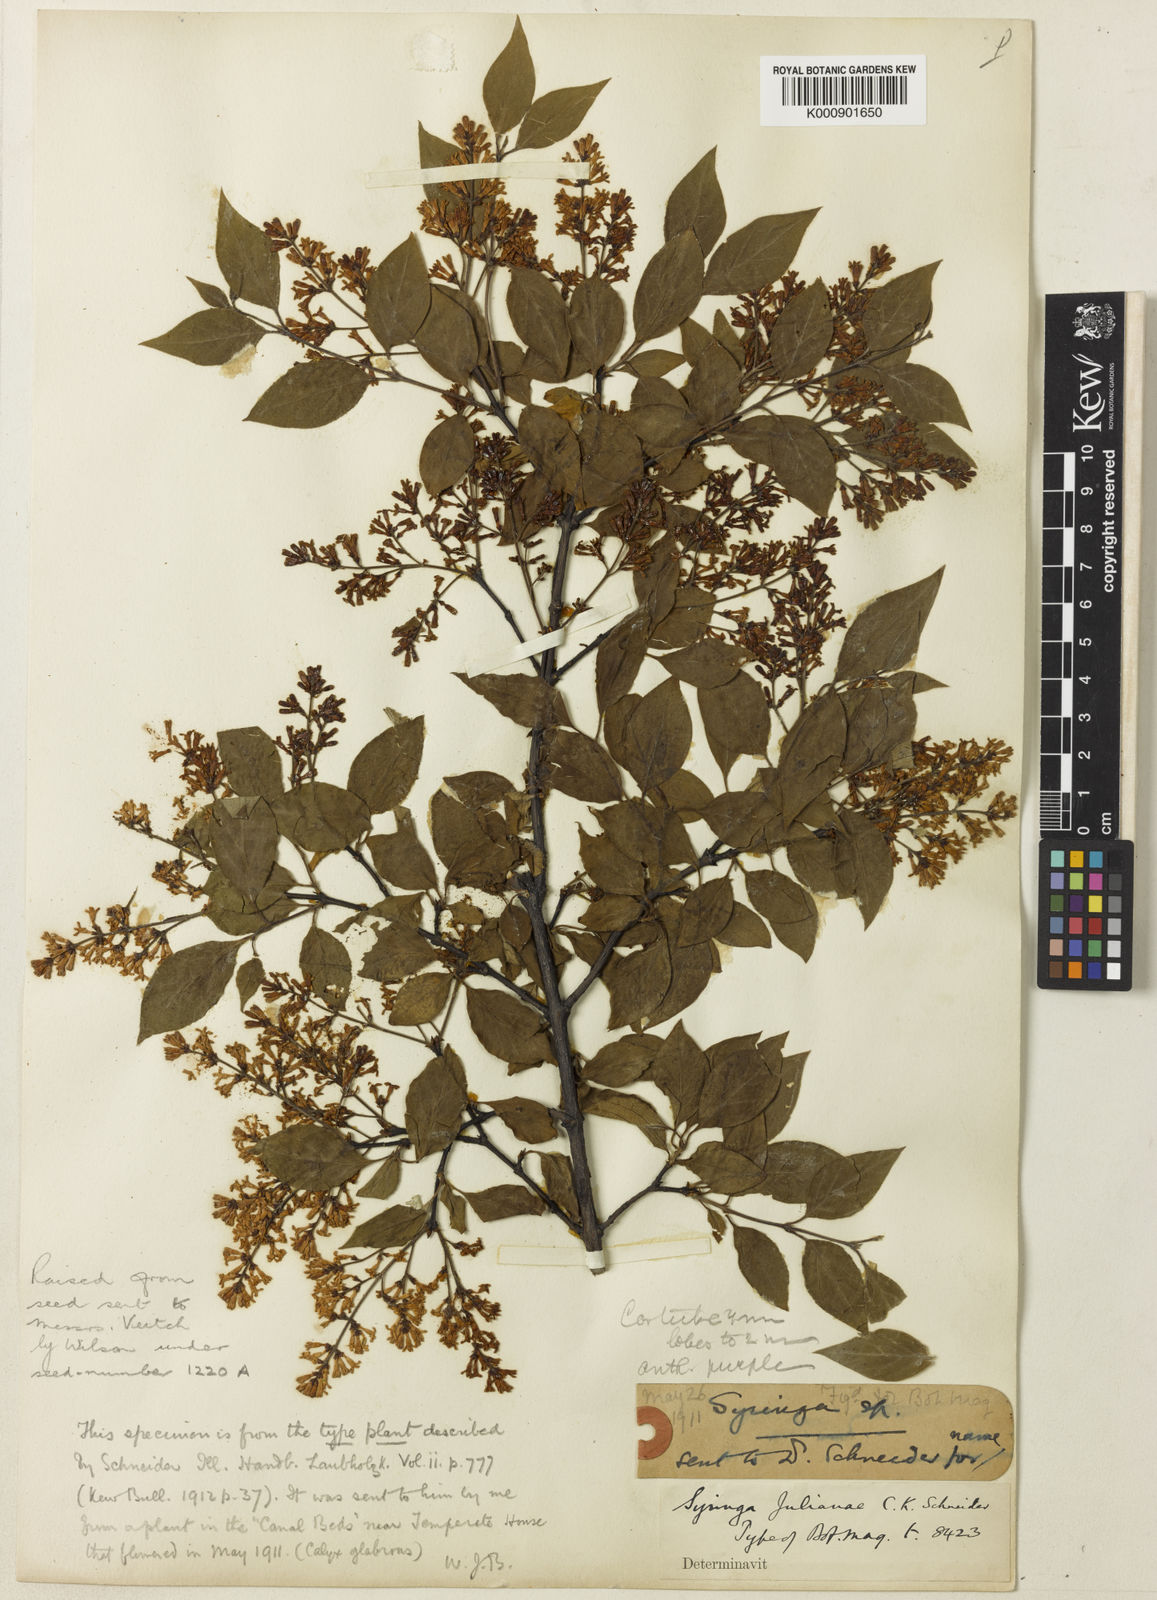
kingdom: Plantae
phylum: Tracheophyta
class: Magnoliopsida
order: Lamiales
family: Oleaceae
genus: Syringa
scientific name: Syringa pubescens
